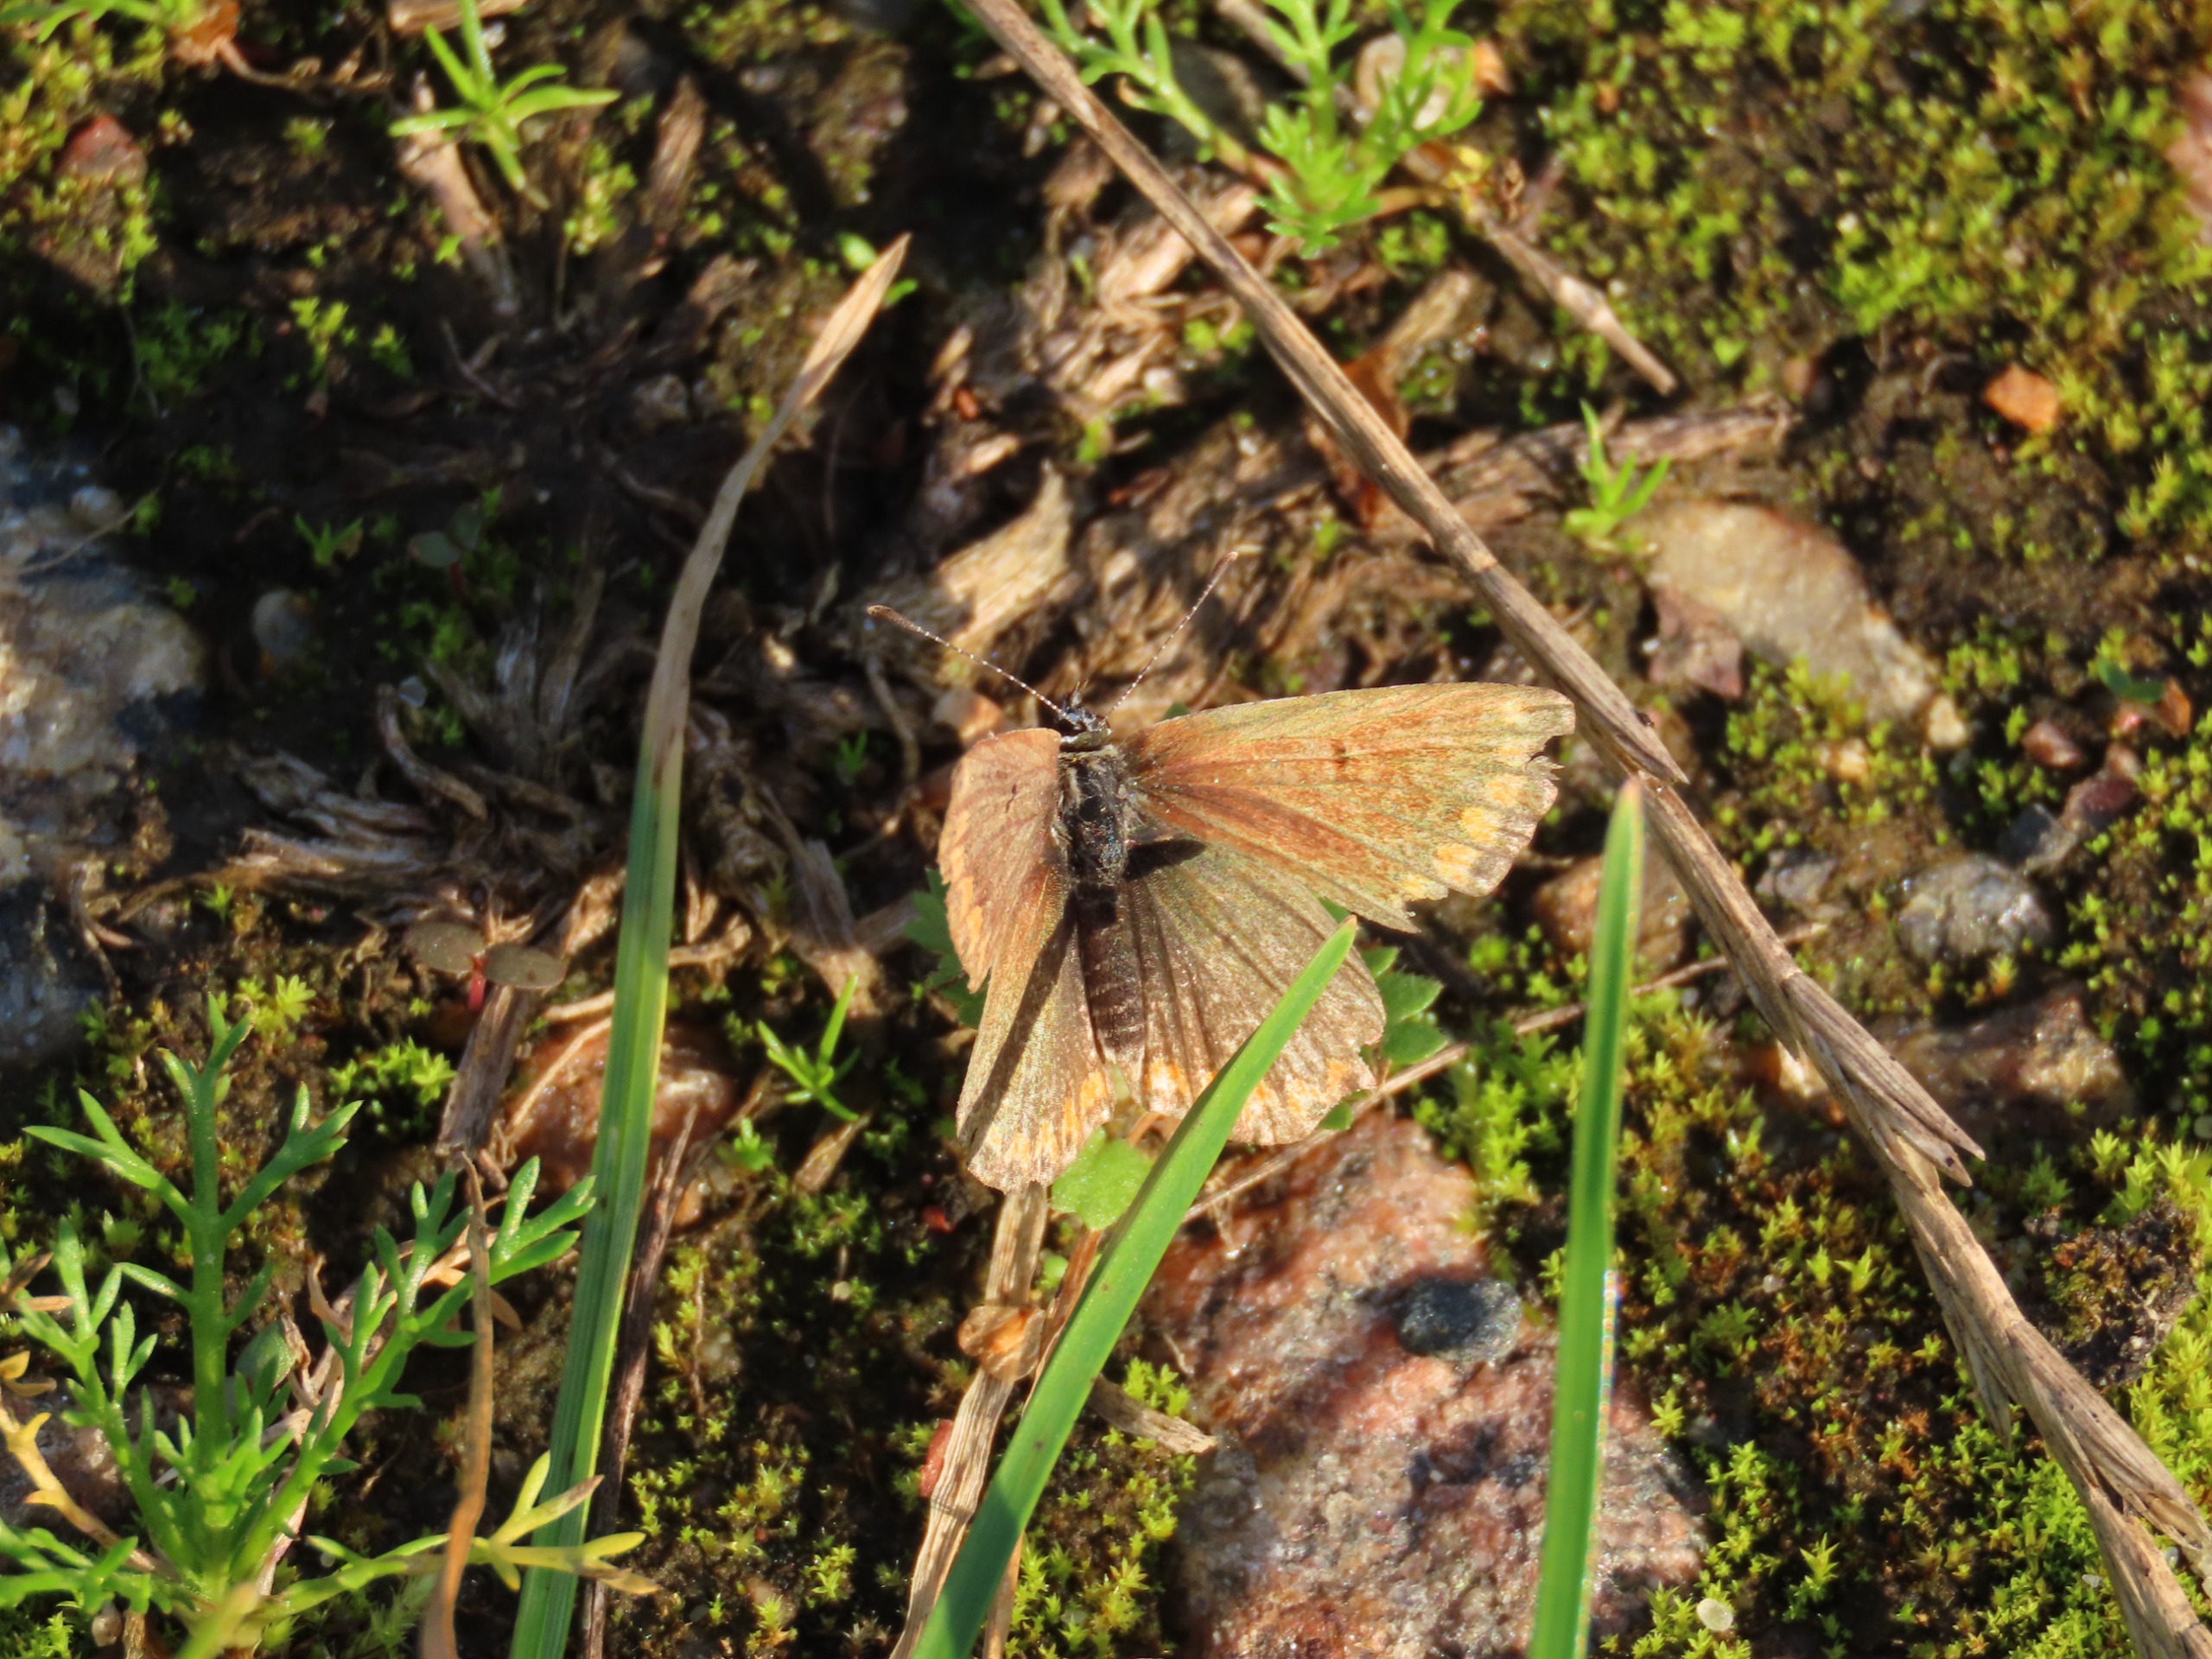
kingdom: Animalia
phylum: Arthropoda
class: Insecta
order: Lepidoptera
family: Lycaenidae
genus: Aricia
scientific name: Aricia agestis
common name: Rødplettet blåfugl
